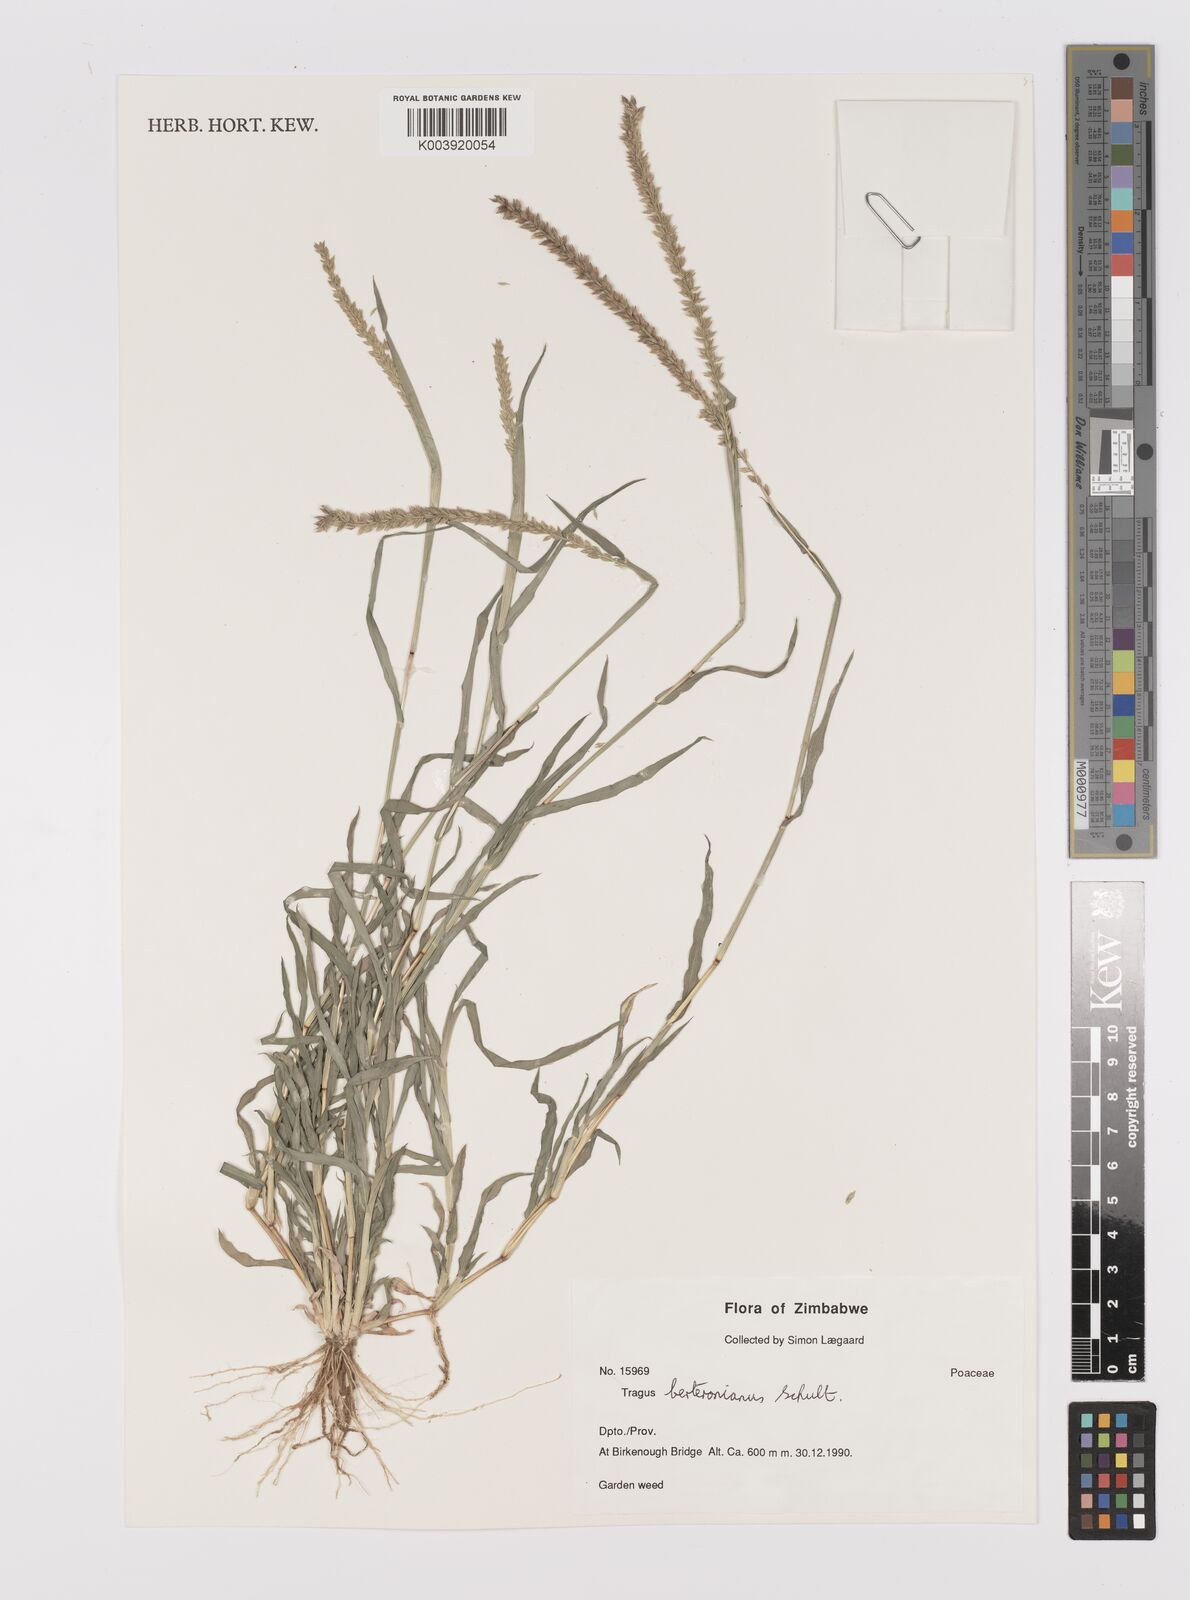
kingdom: Plantae
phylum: Tracheophyta
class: Liliopsida
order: Poales
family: Poaceae
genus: Tragus
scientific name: Tragus berteronianus
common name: African bur-grass
